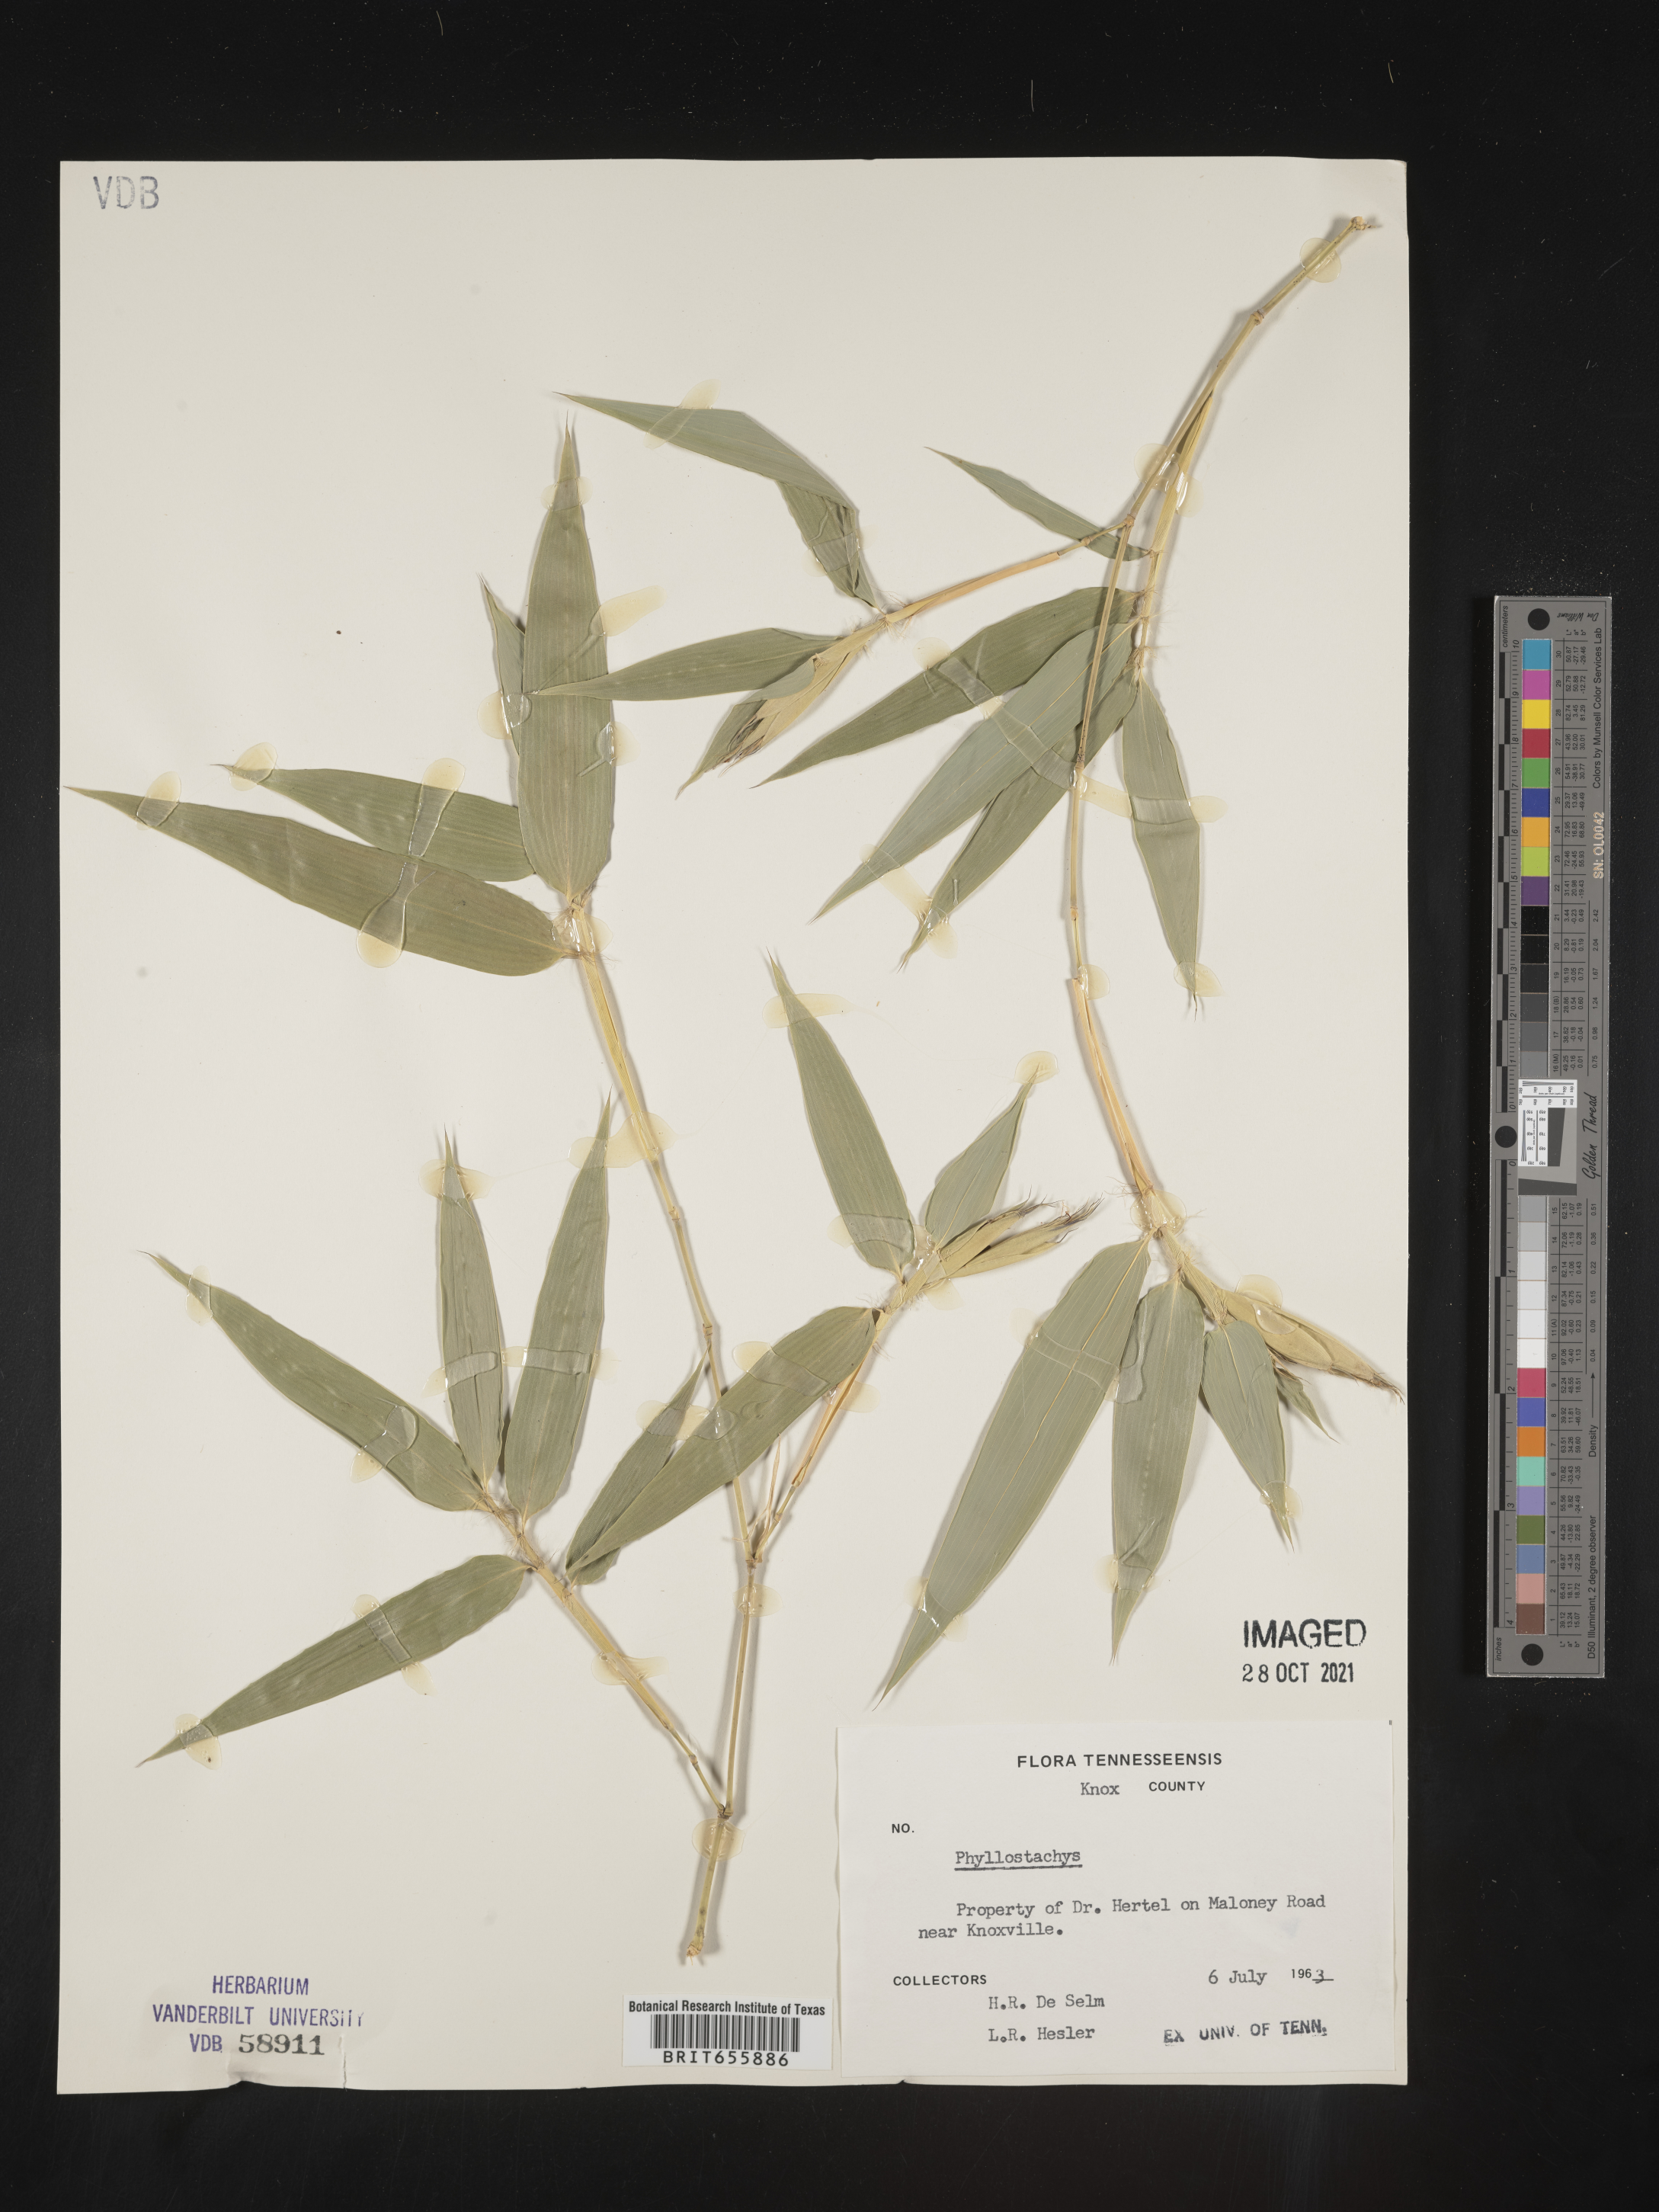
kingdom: Plantae
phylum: Tracheophyta
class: Liliopsida
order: Poales
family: Poaceae
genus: Phyllostachys
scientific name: Phyllostachys
